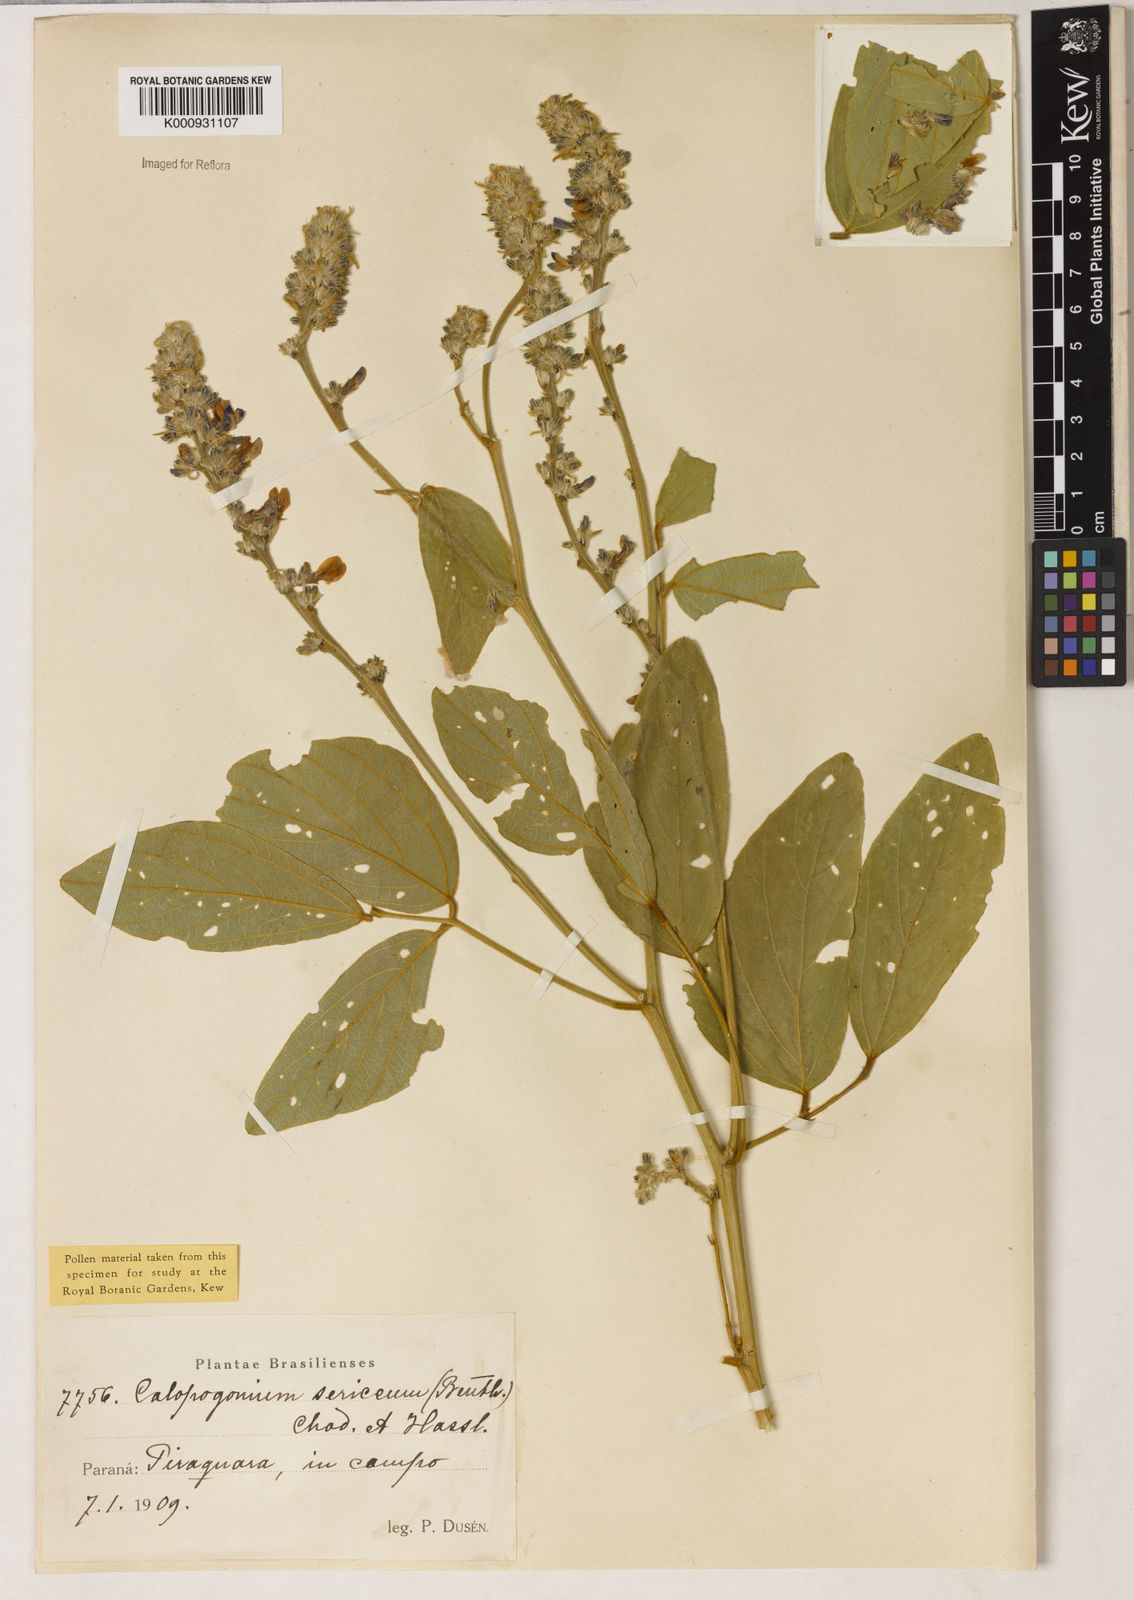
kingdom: Plantae
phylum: Tracheophyta
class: Magnoliopsida
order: Fabales
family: Fabaceae
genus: Calopogonium
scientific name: Calopogonium sericeum
